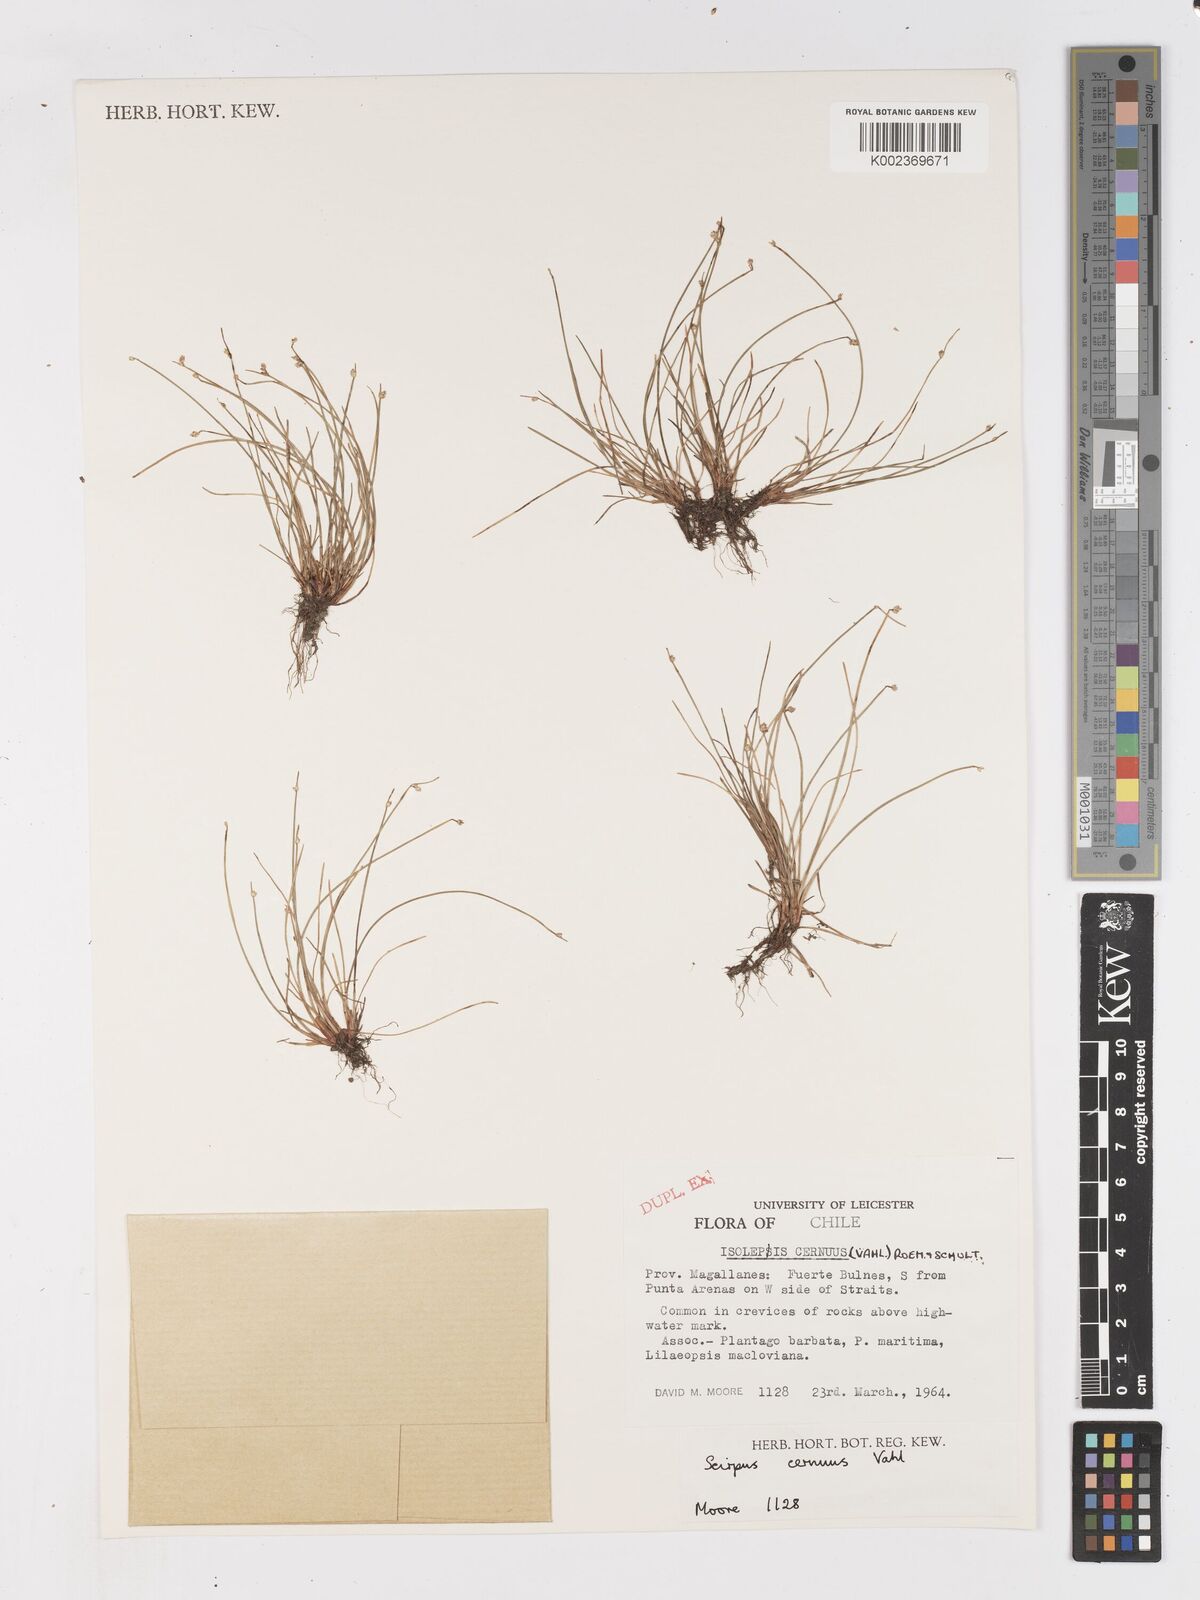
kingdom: Plantae
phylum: Tracheophyta
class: Liliopsida
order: Poales
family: Cyperaceae
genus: Isolepis
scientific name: Isolepis cernua
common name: Slender club-rush
